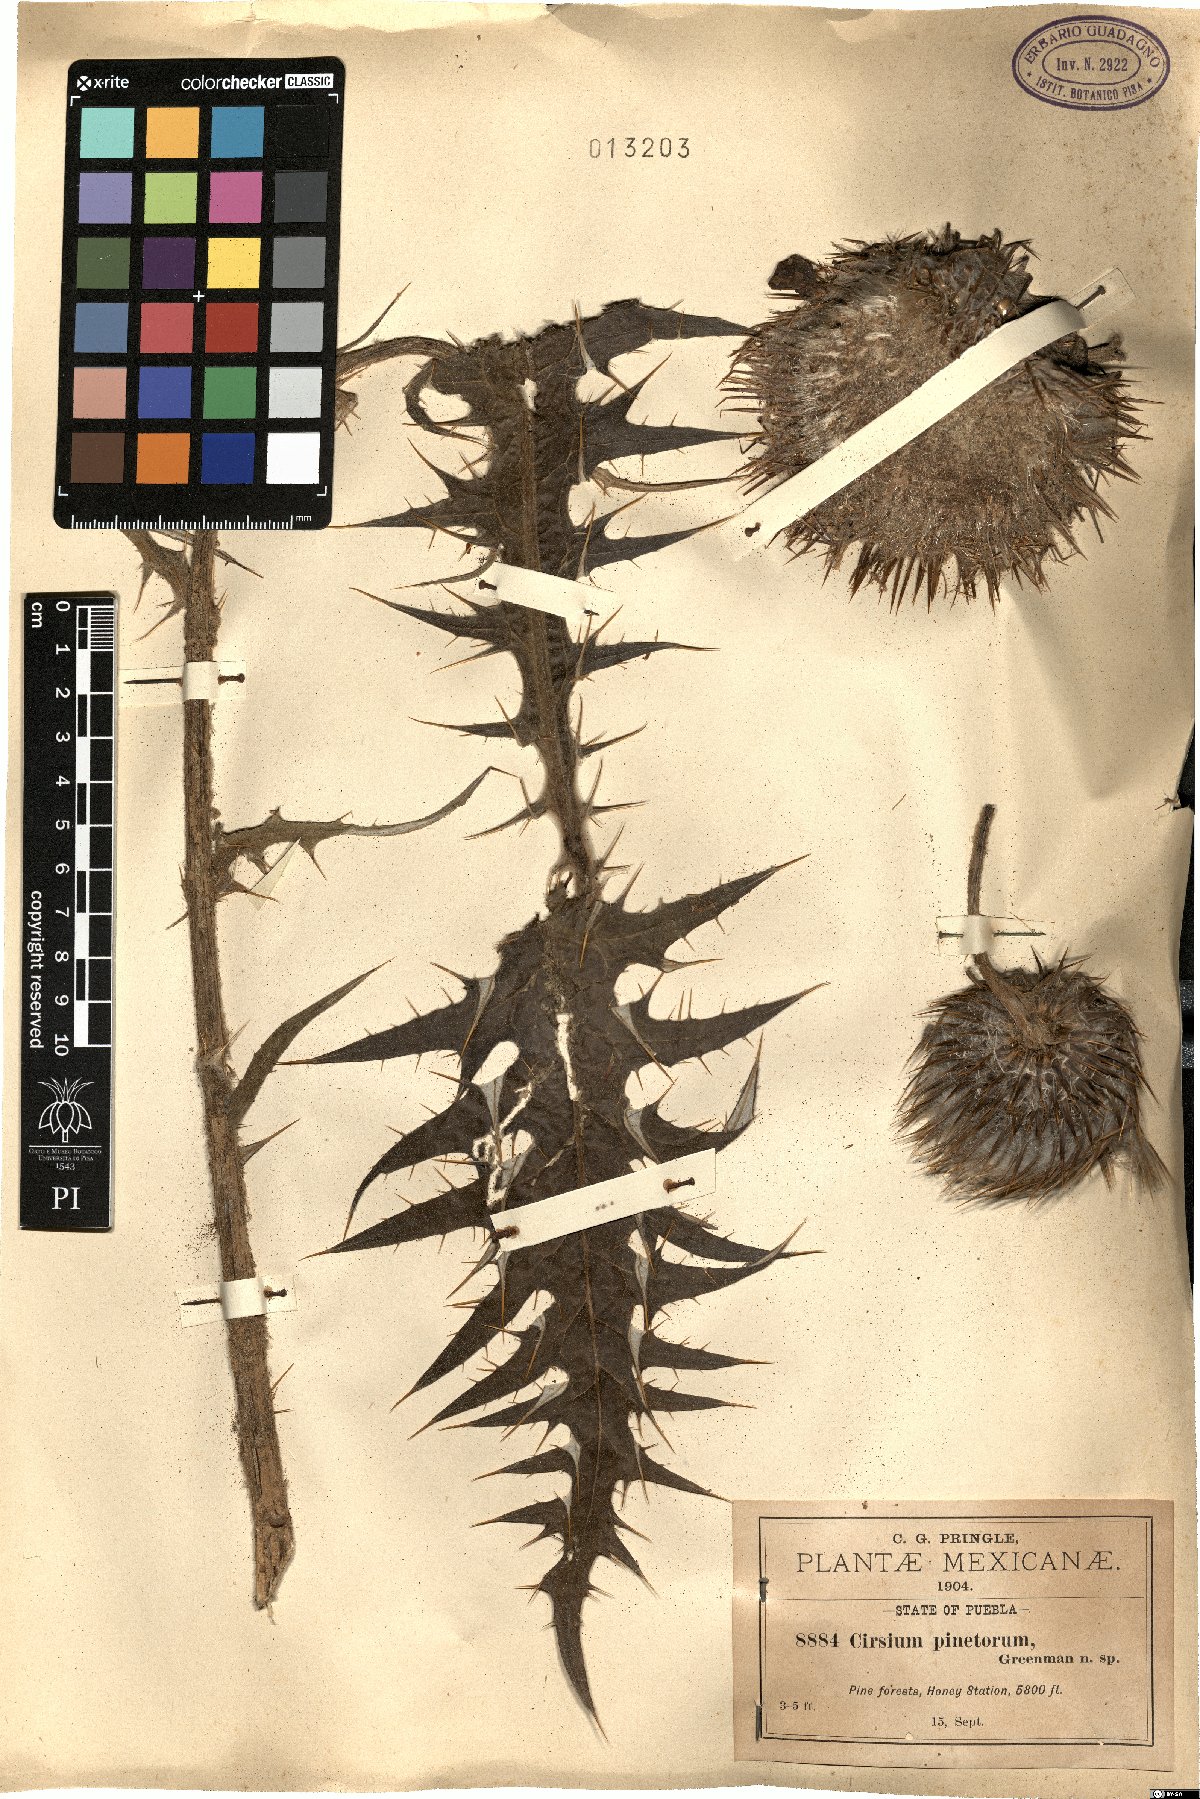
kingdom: Plantae
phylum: Tracheophyta
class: Magnoliopsida
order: Asterales
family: Asteraceae
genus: Cirsium
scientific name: Cirsium pinetorum
